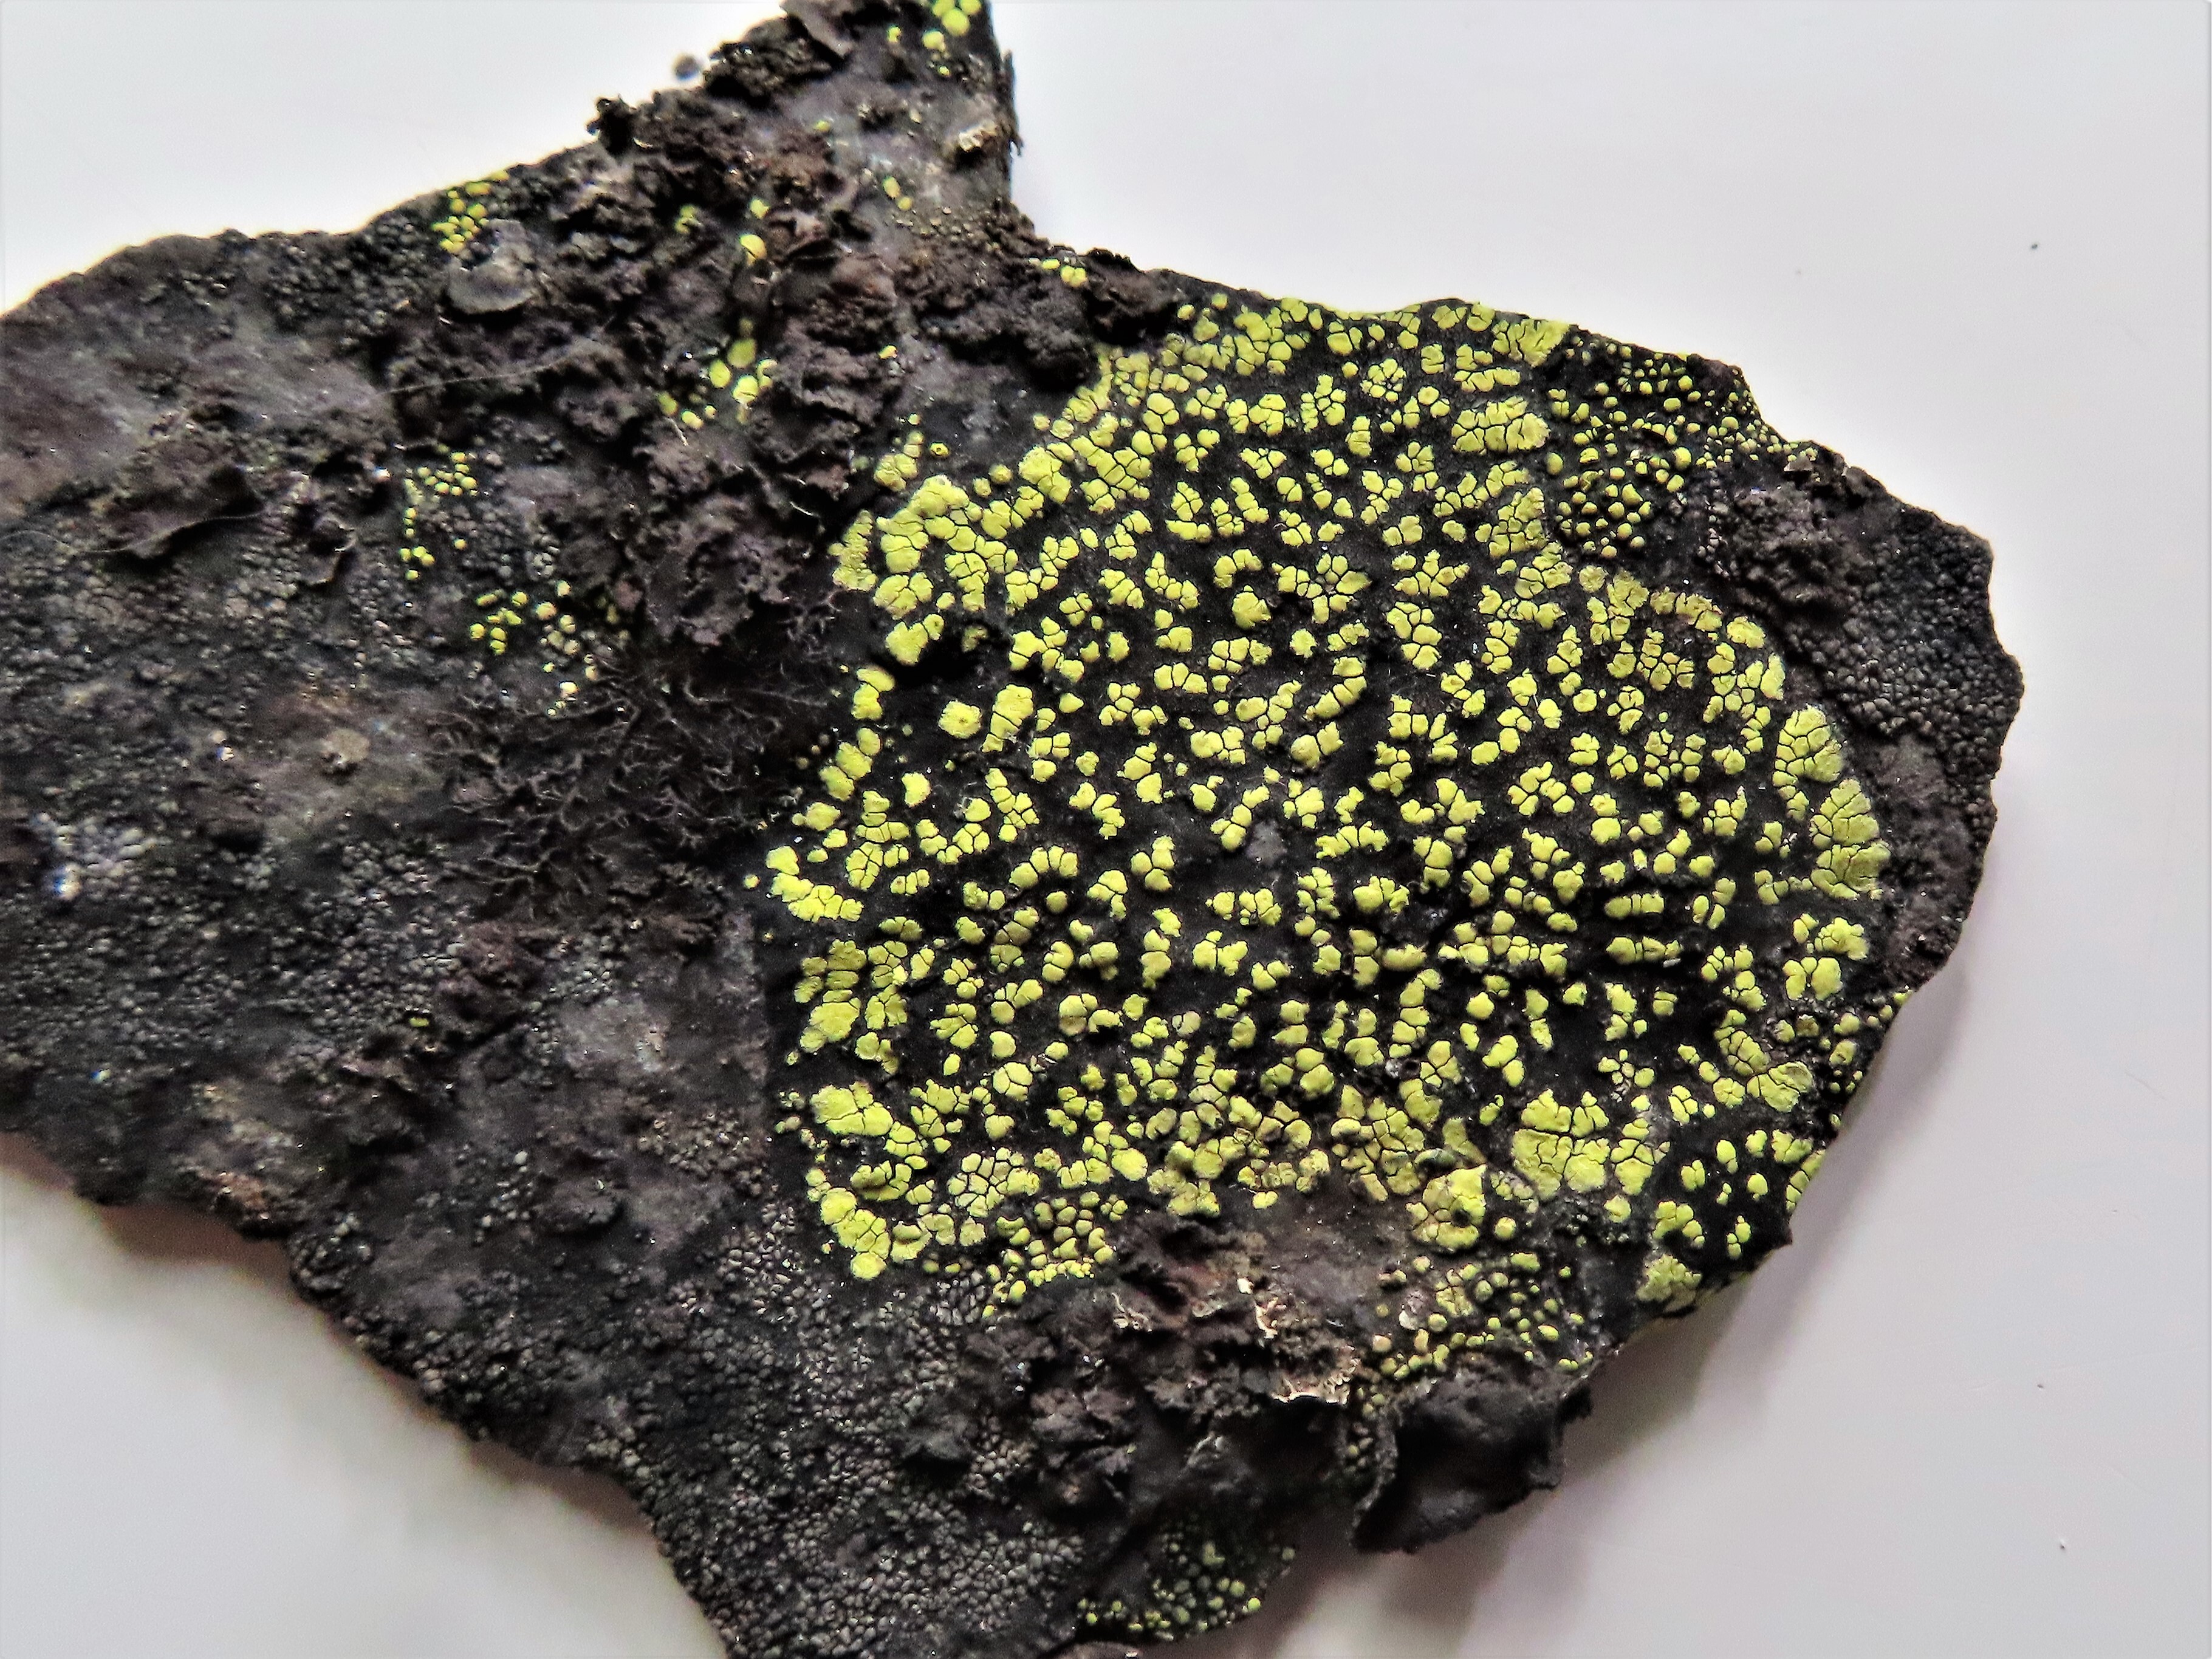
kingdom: Fungi
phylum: Ascomycota
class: Lecanoromycetes
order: Rhizocarpales
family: Rhizocarpaceae
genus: Rhizocarpon
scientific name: Rhizocarpon alpicola
